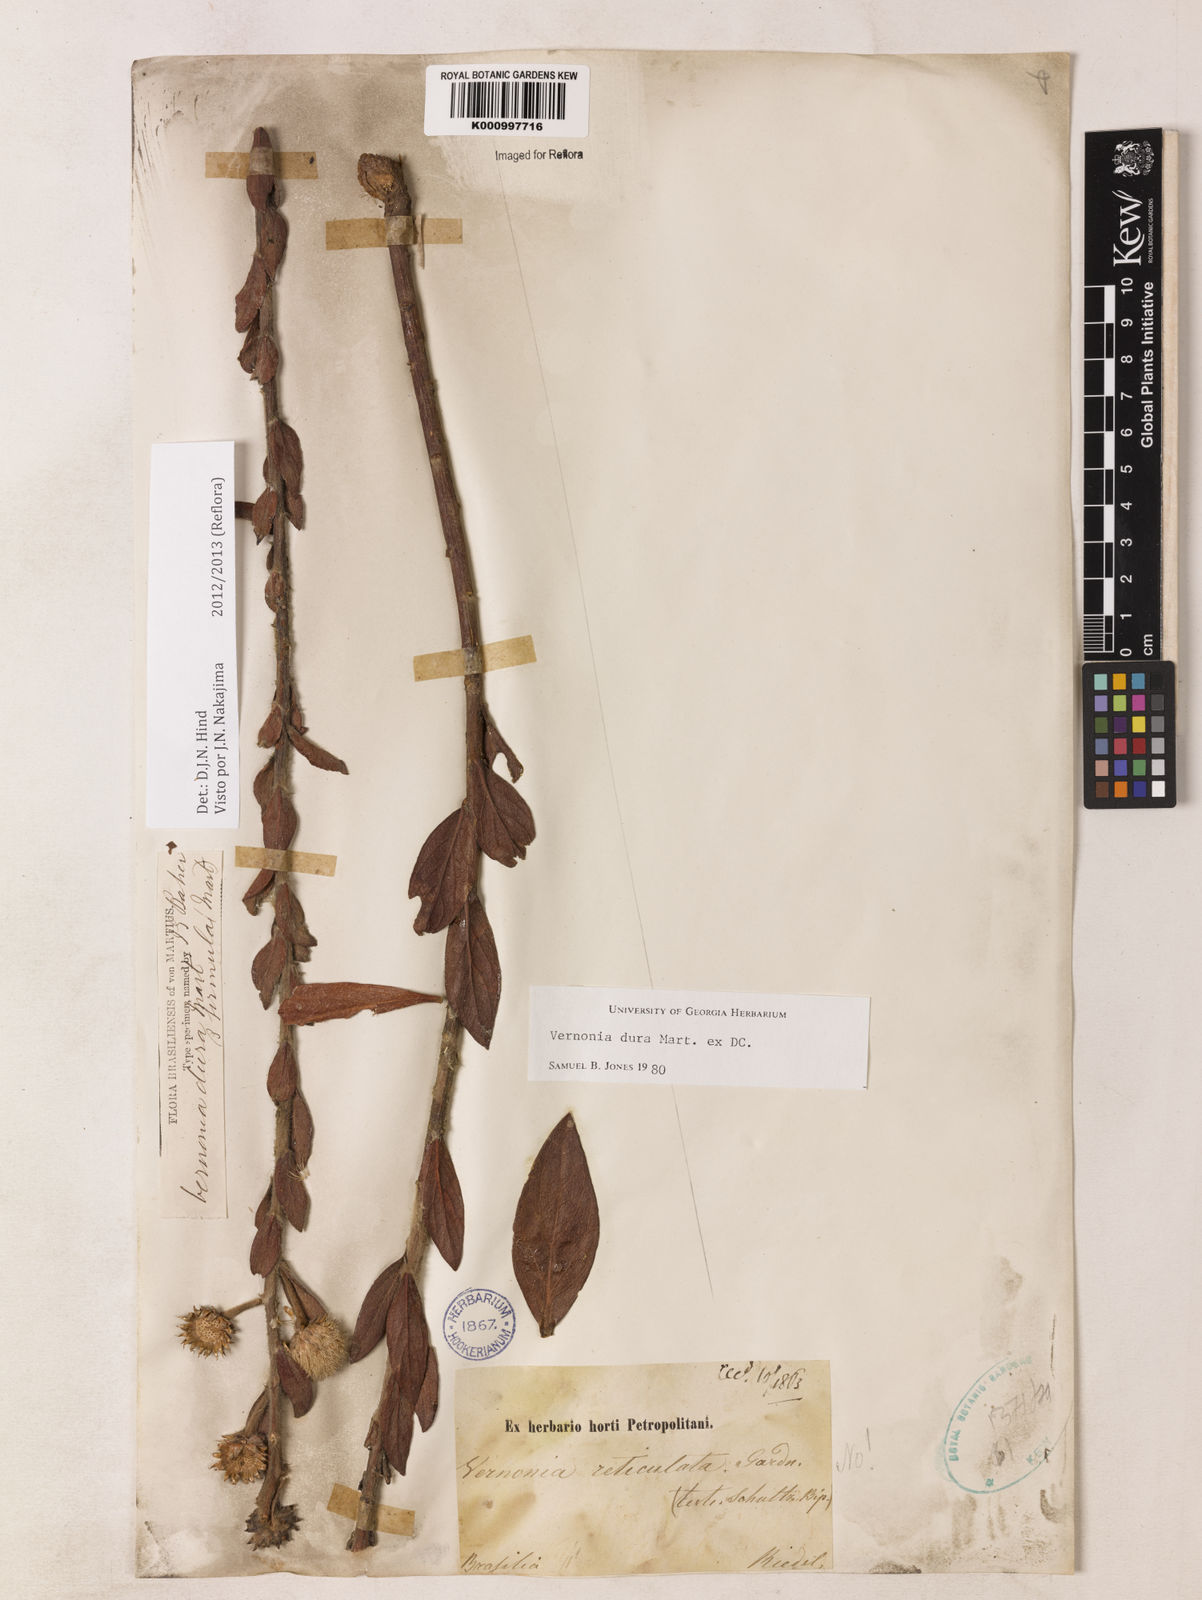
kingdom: Plantae
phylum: Tracheophyta
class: Magnoliopsida
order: Asterales
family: Asteraceae
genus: Lessingianthus
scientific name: Lessingianthus durus
